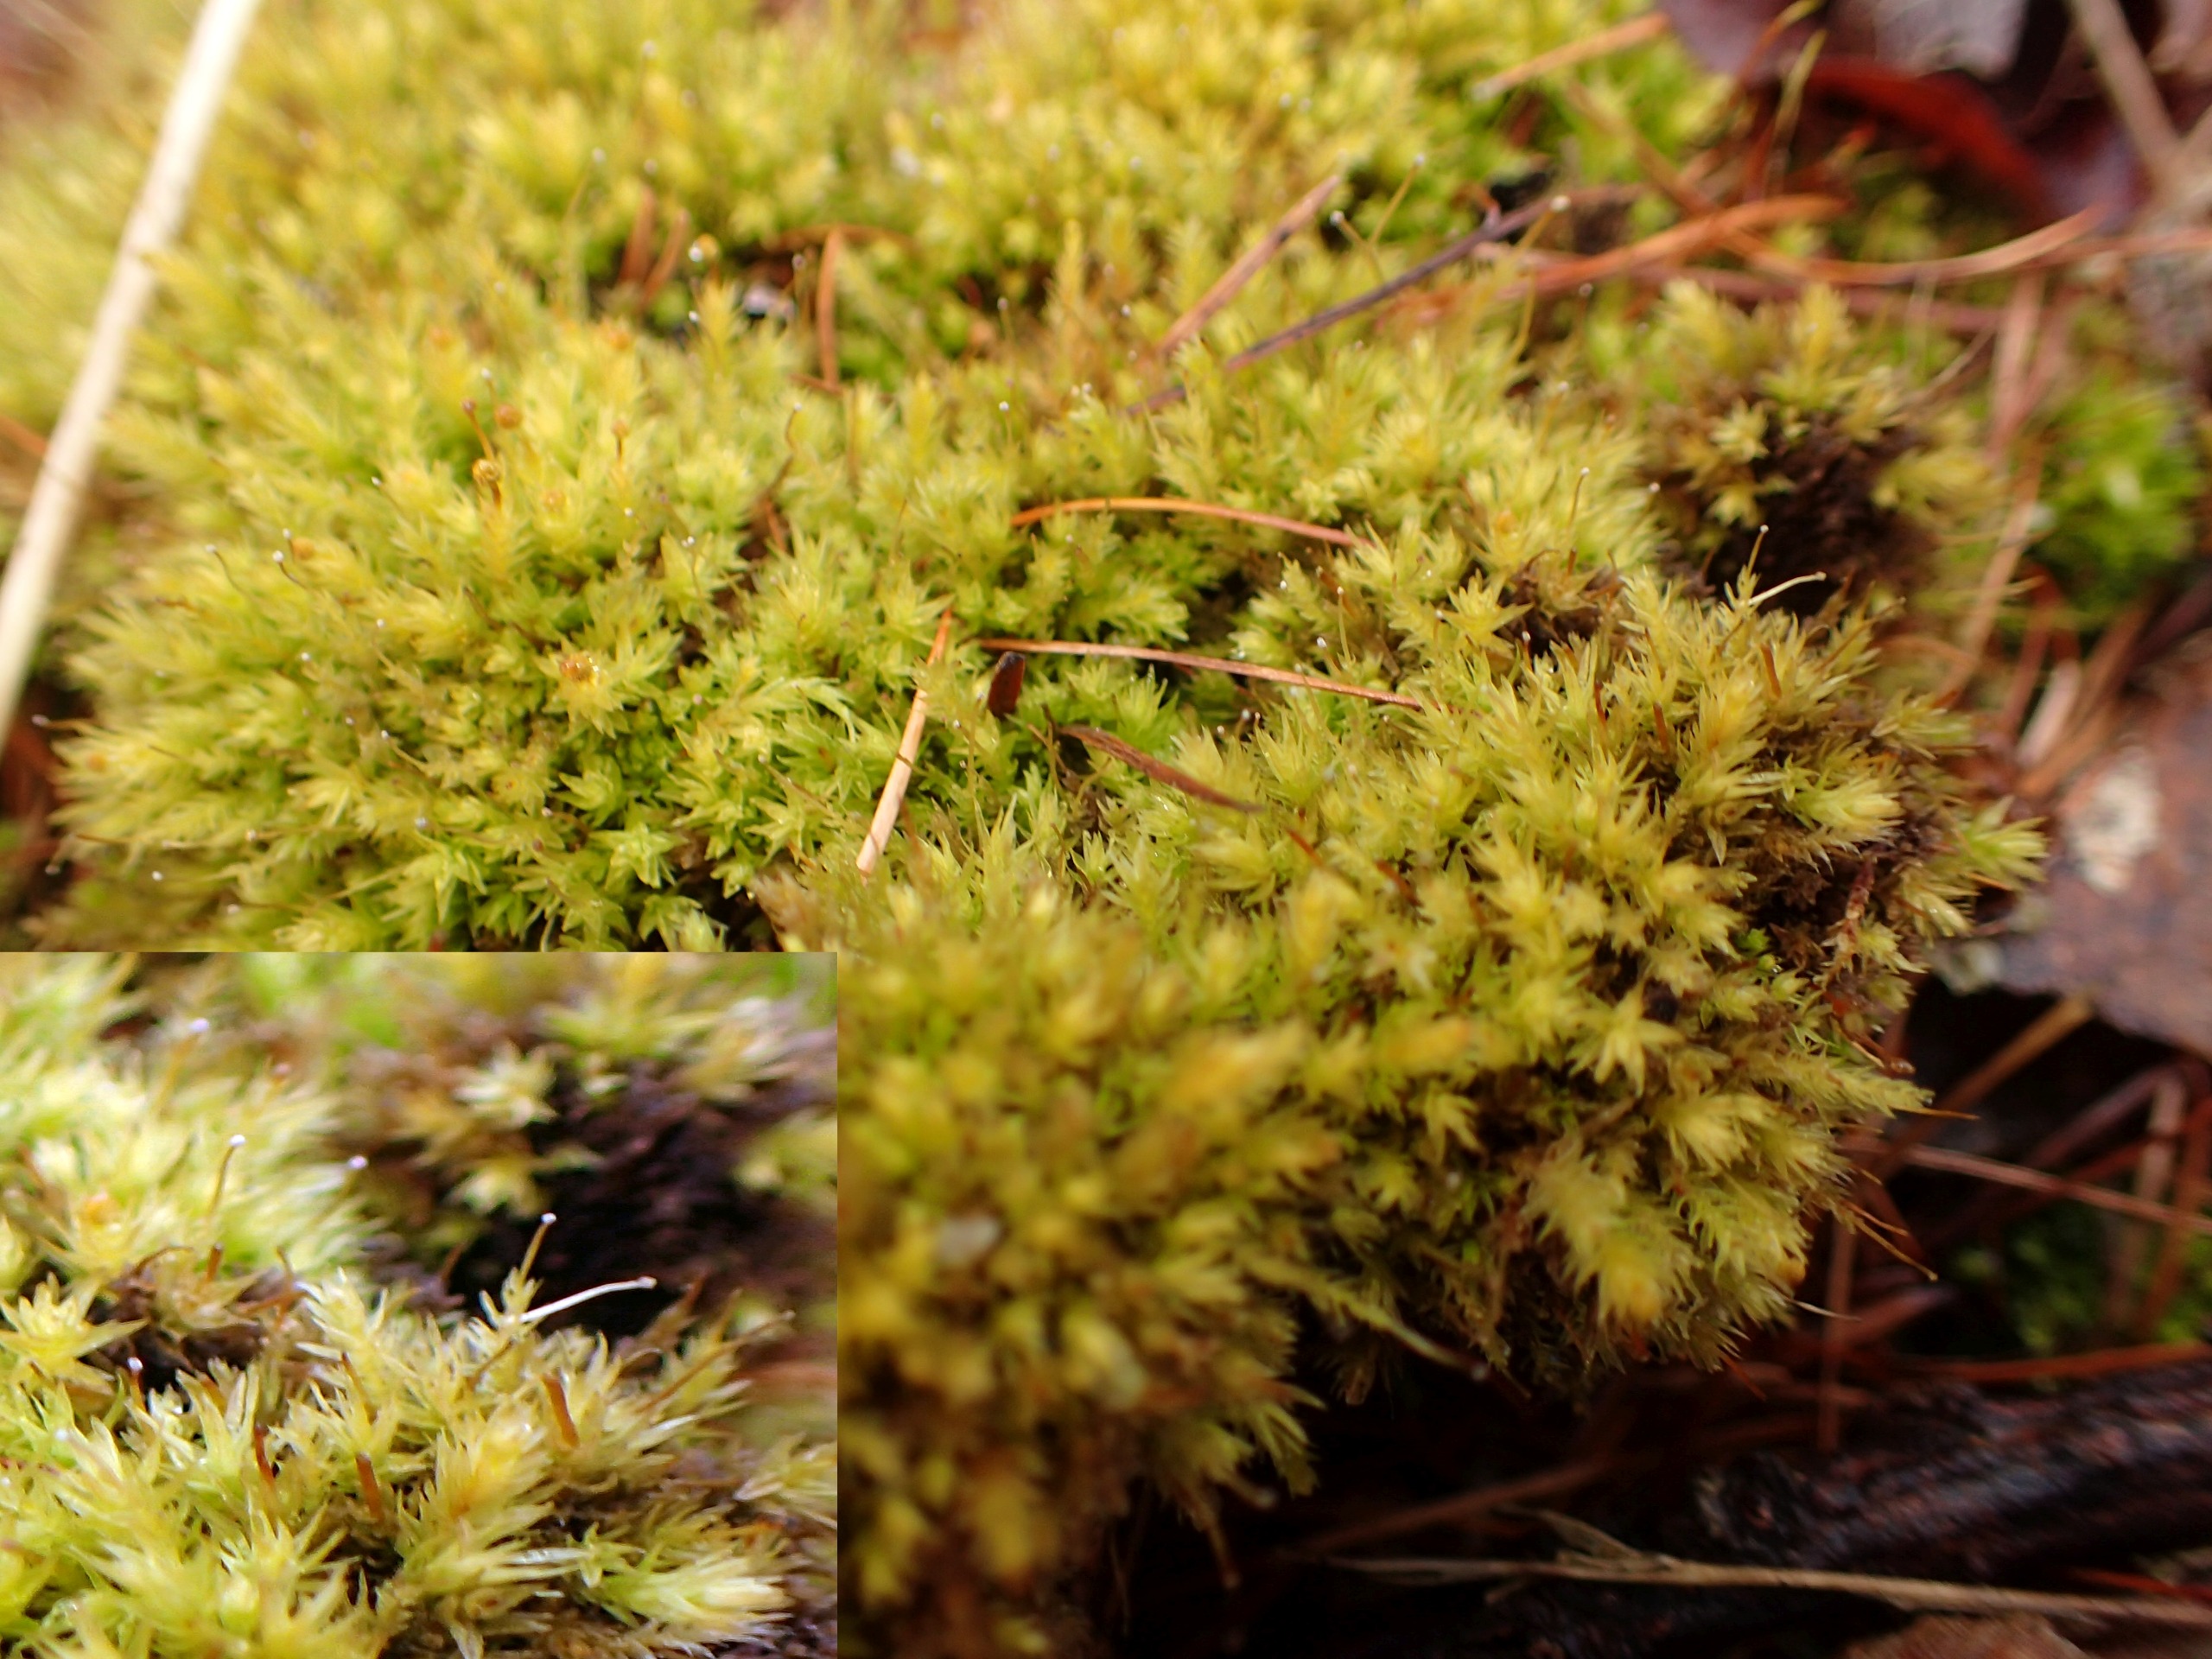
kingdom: Plantae
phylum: Bryophyta
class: Bryopsida
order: Aulacomniales
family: Aulacomniaceae
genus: Aulacomnium
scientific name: Aulacomnium androgynum
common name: Kugle-filtmos
